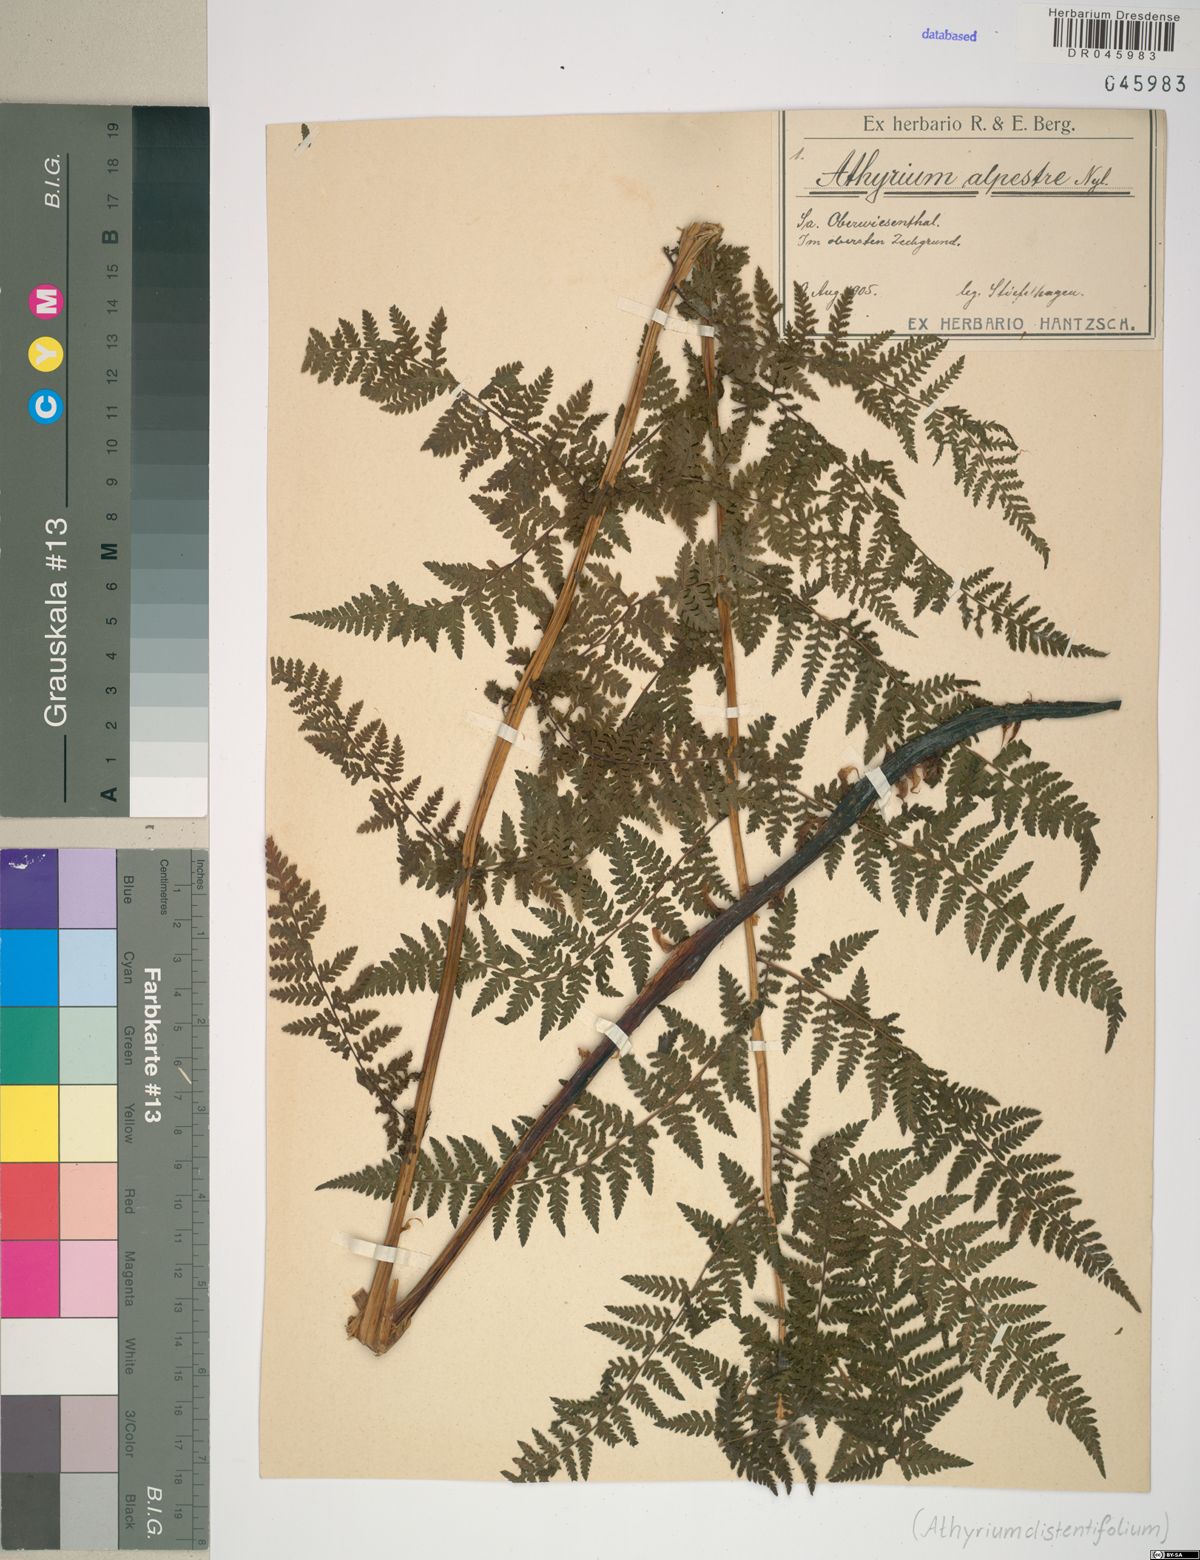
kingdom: Plantae
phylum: Tracheophyta
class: Polypodiopsida
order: Polypodiales
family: Athyriaceae
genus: Pseudathyrium
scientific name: Pseudathyrium alpestre
